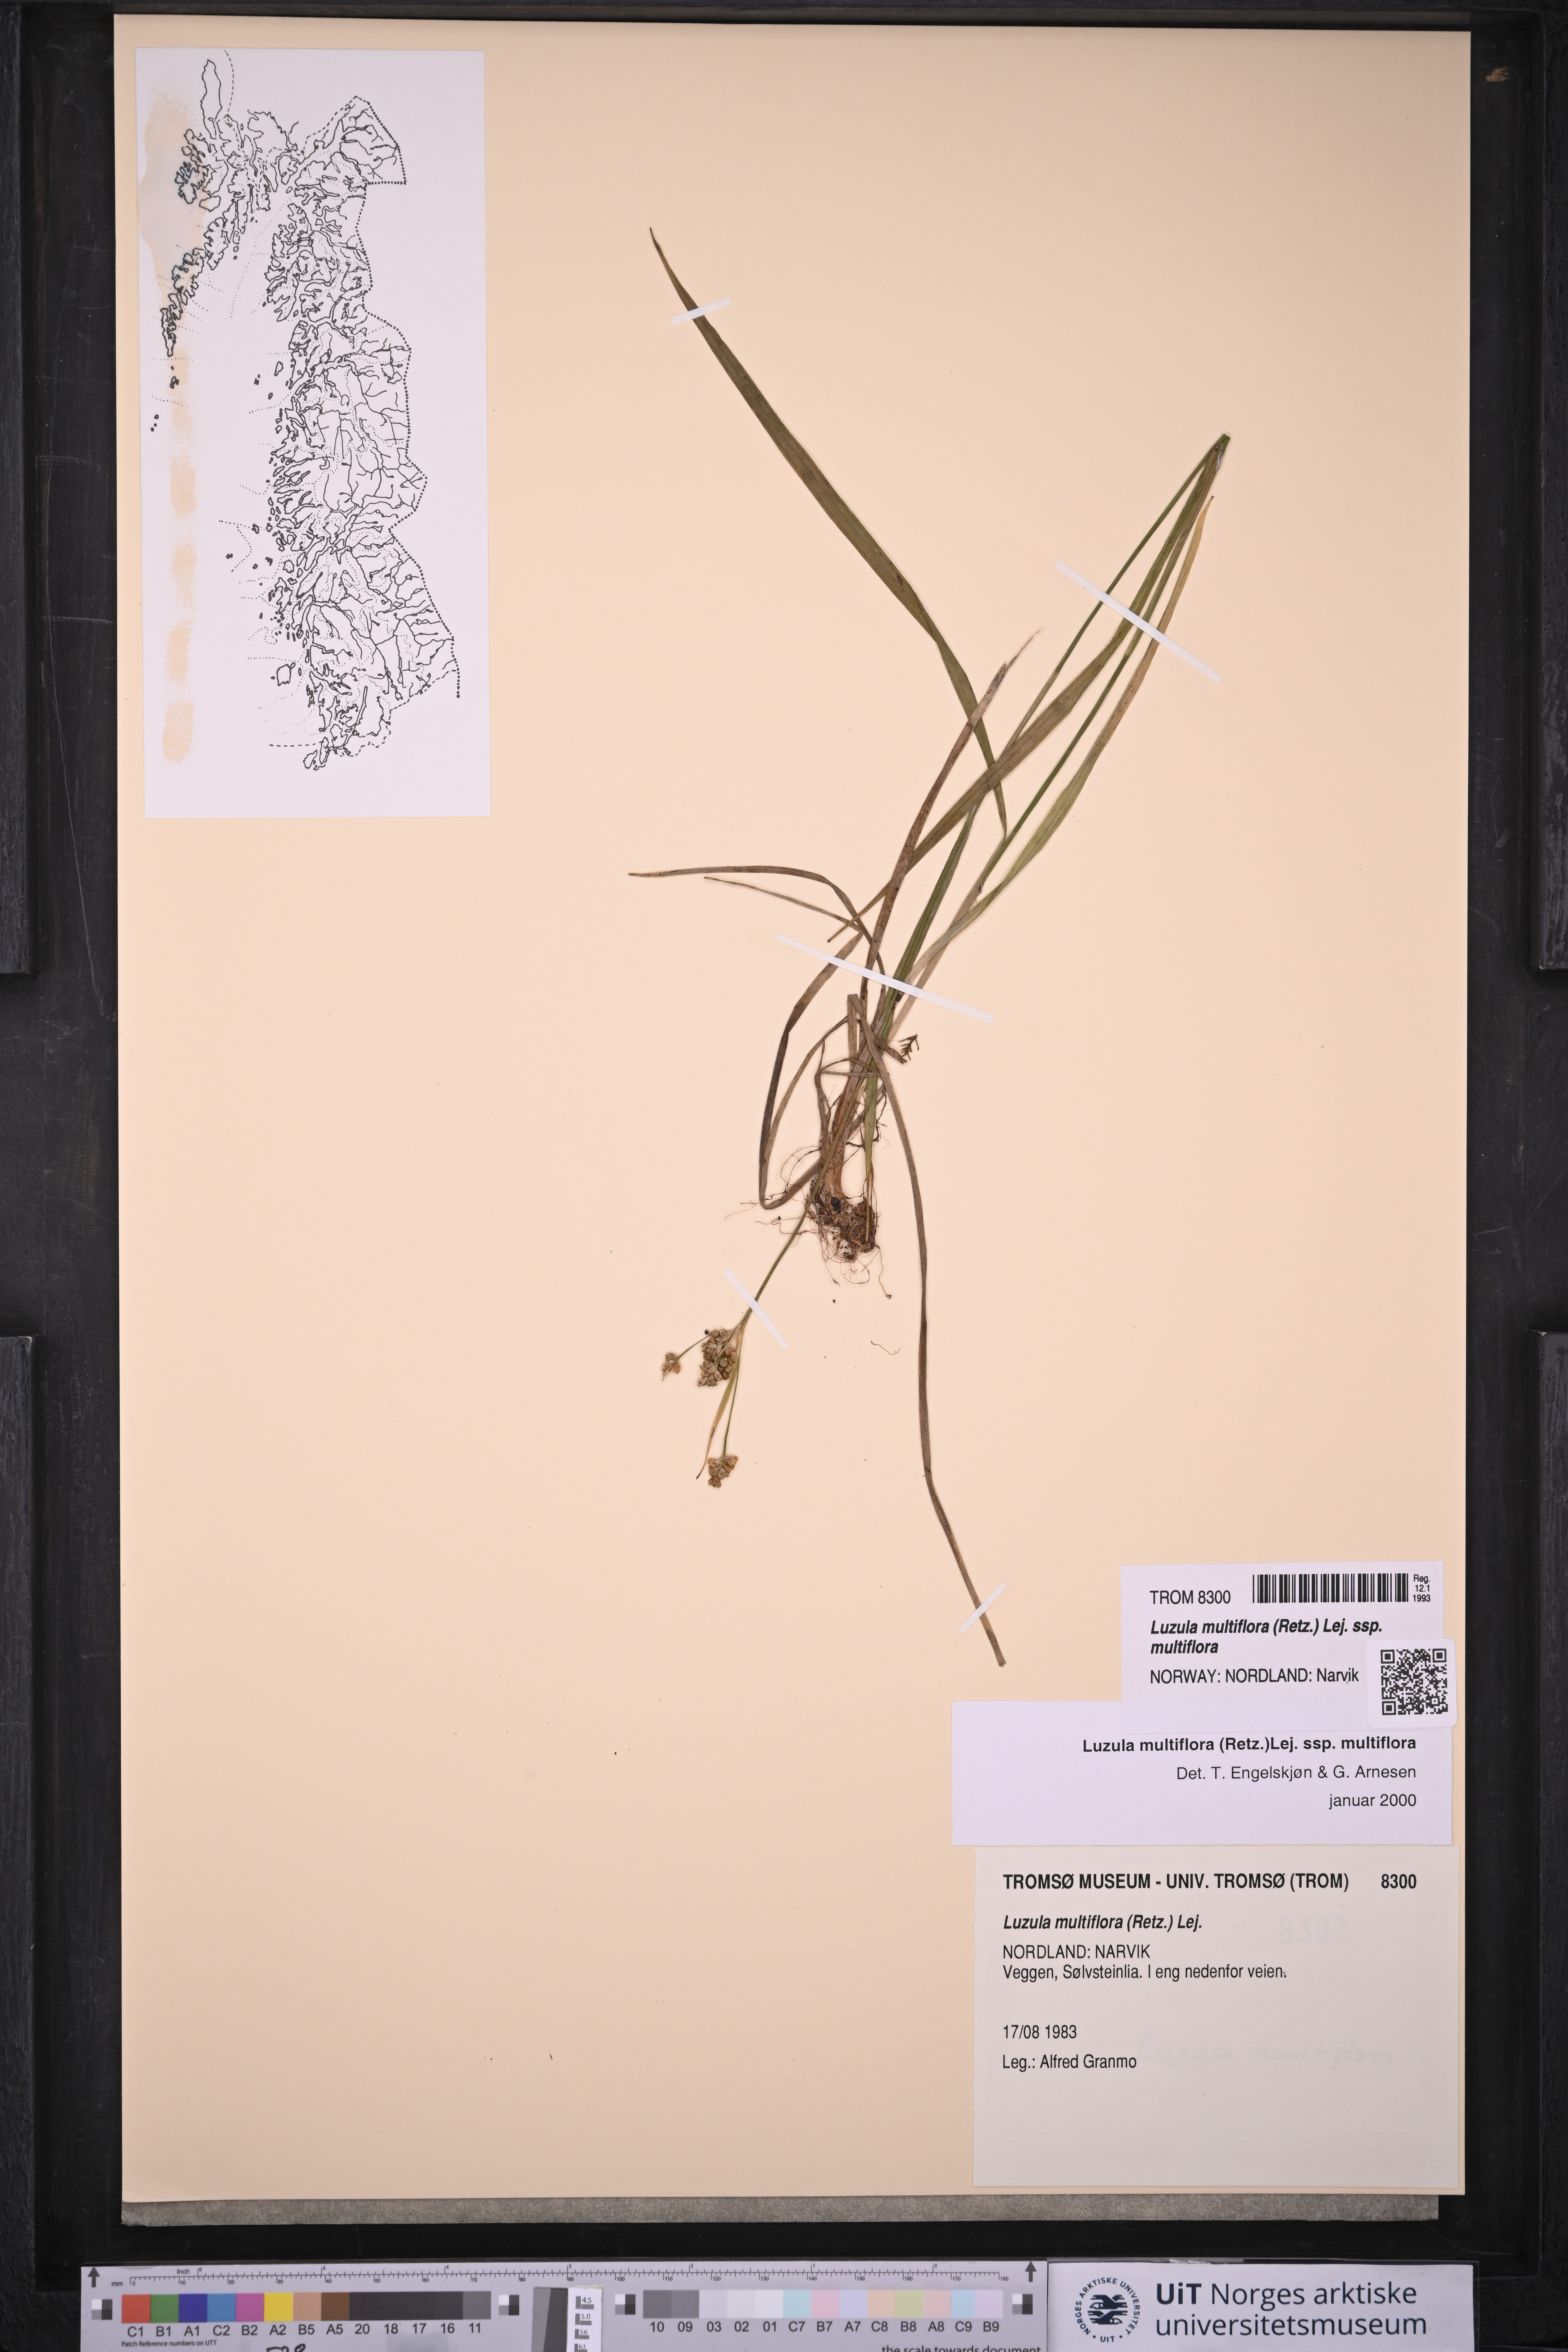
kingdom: Plantae
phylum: Tracheophyta
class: Liliopsida
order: Poales
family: Juncaceae
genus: Luzula
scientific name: Luzula multiflora
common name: Heath wood-rush
